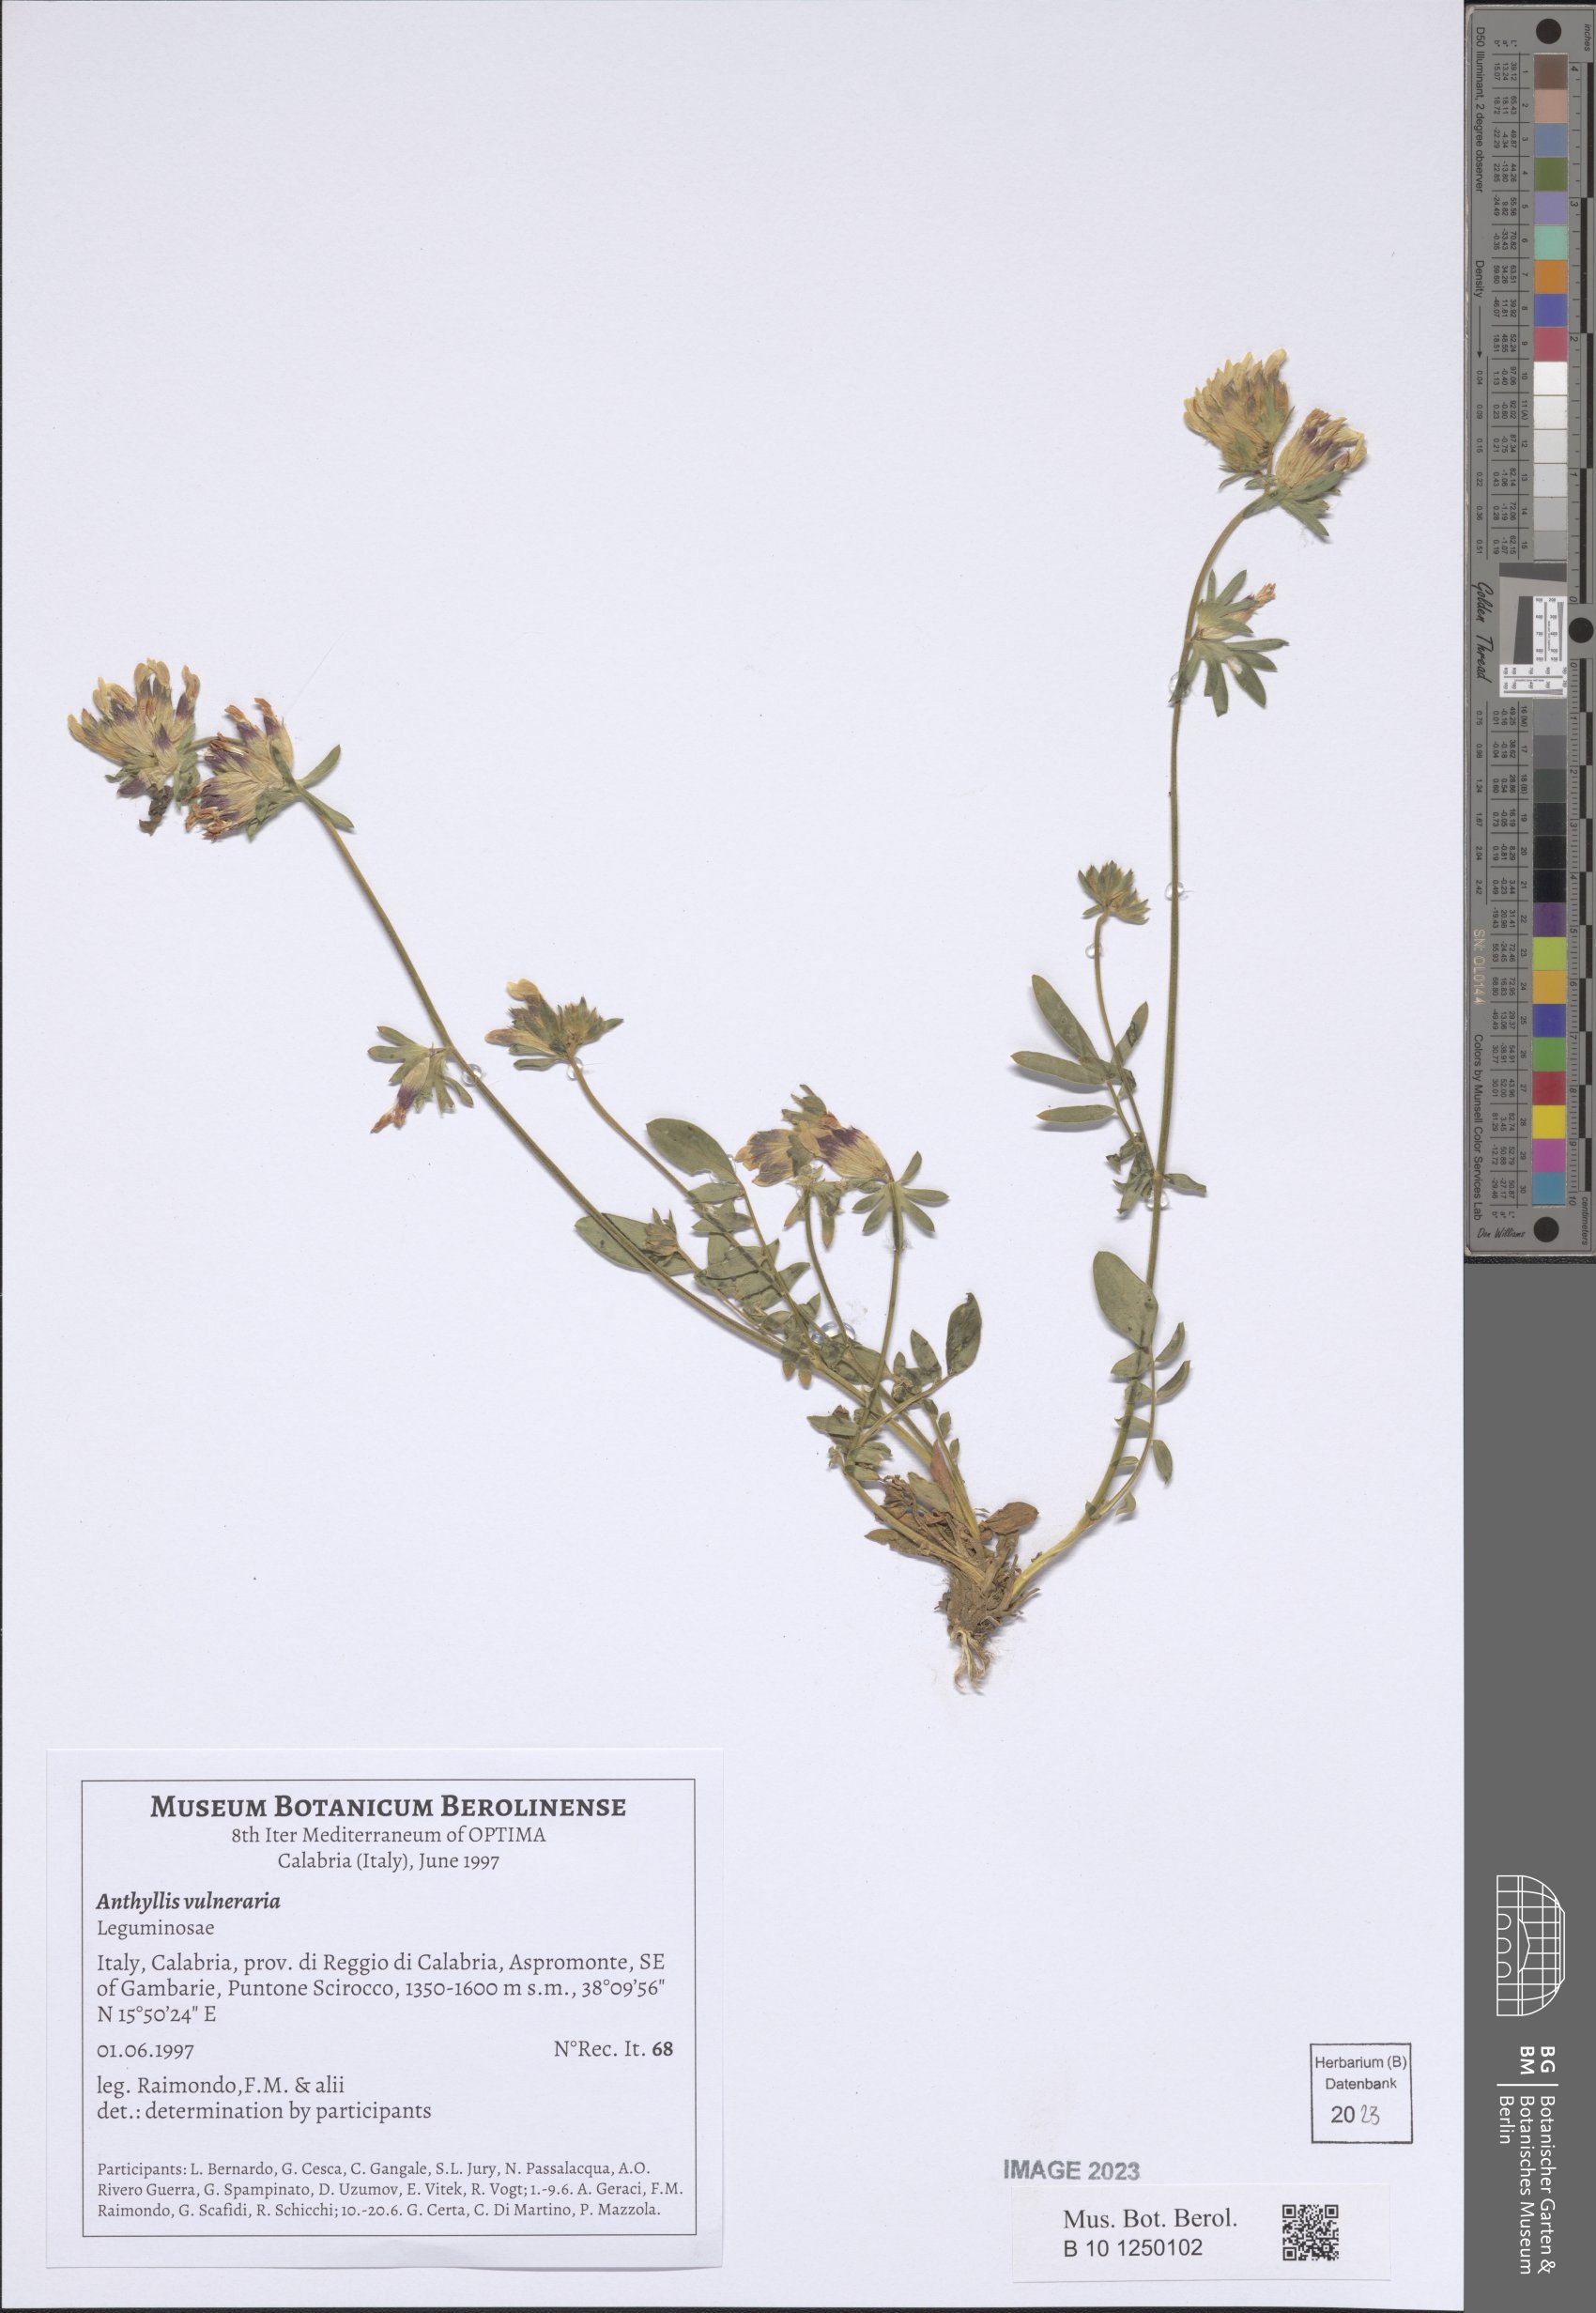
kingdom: Plantae
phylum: Tracheophyta
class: Magnoliopsida
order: Fabales
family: Fabaceae
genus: Anthyllis
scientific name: Anthyllis vulneraria
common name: Kidney vetch
